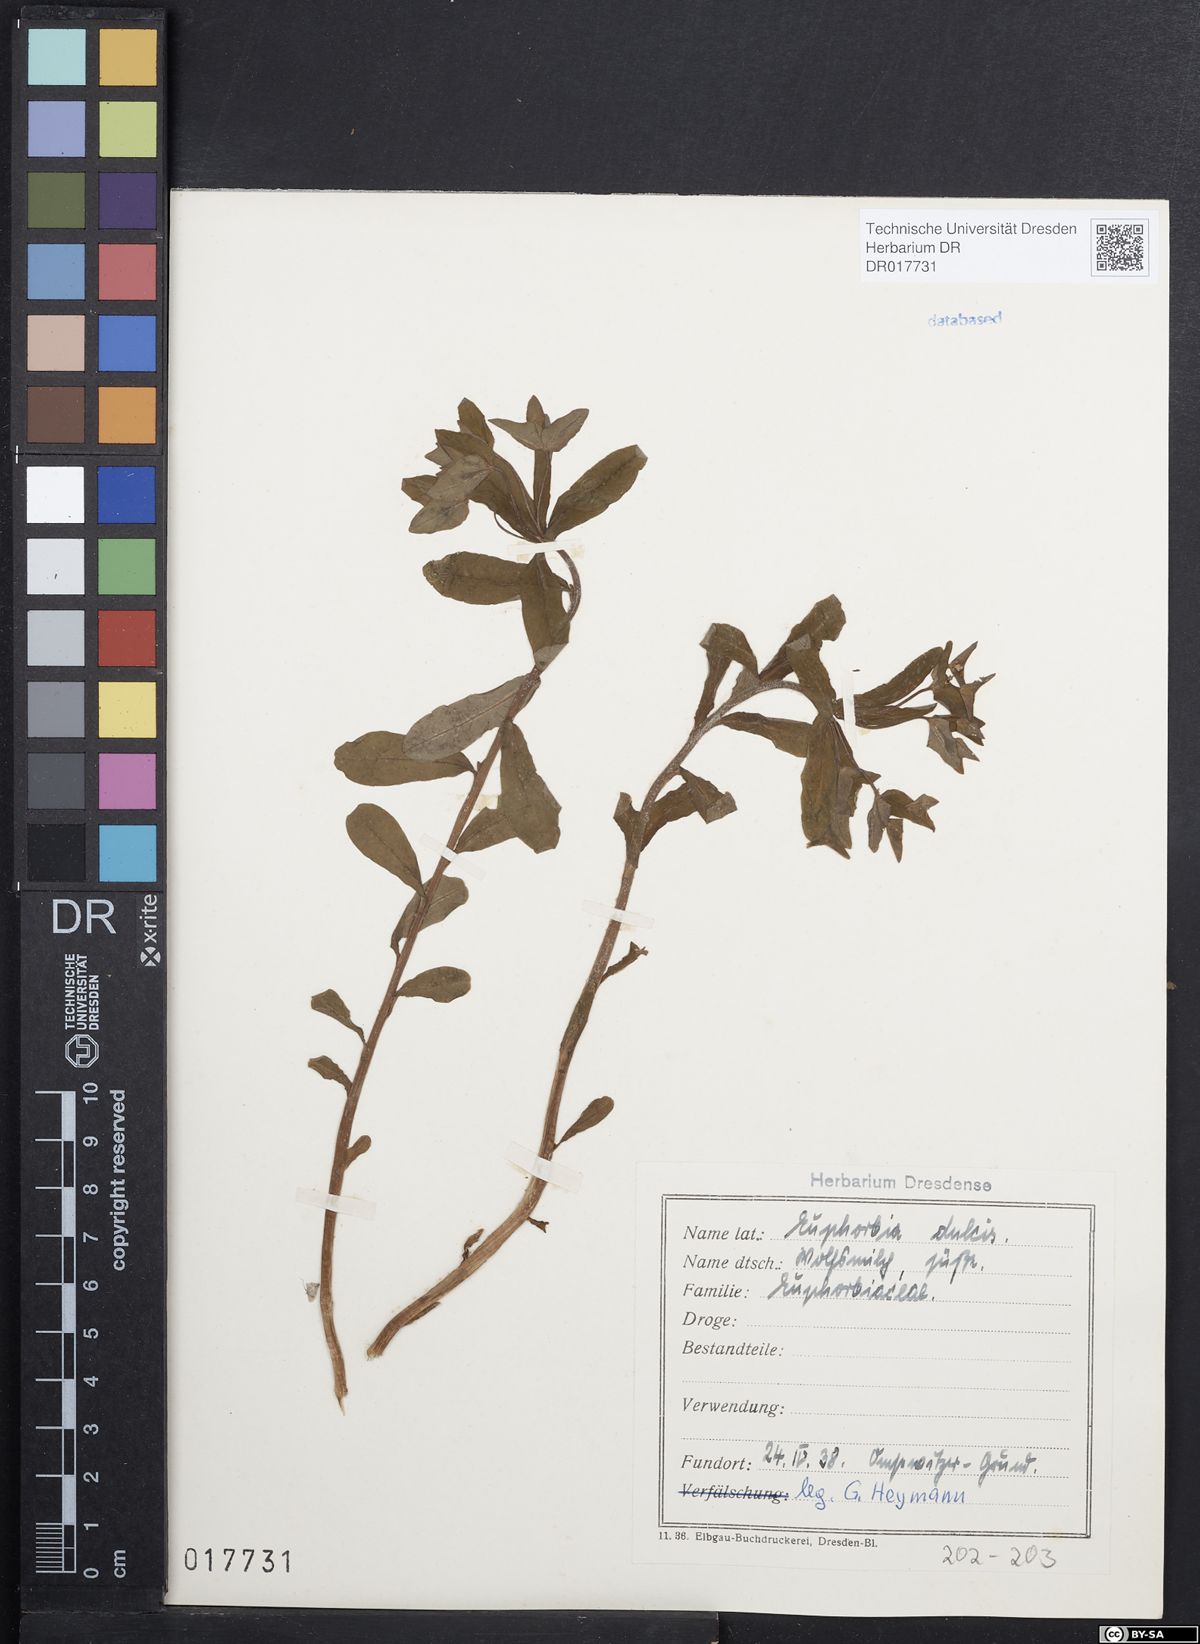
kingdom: Plantae
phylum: Tracheophyta
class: Magnoliopsida
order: Malpighiales
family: Euphorbiaceae
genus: Euphorbia
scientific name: Euphorbia dulcis
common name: Sweet spurge
